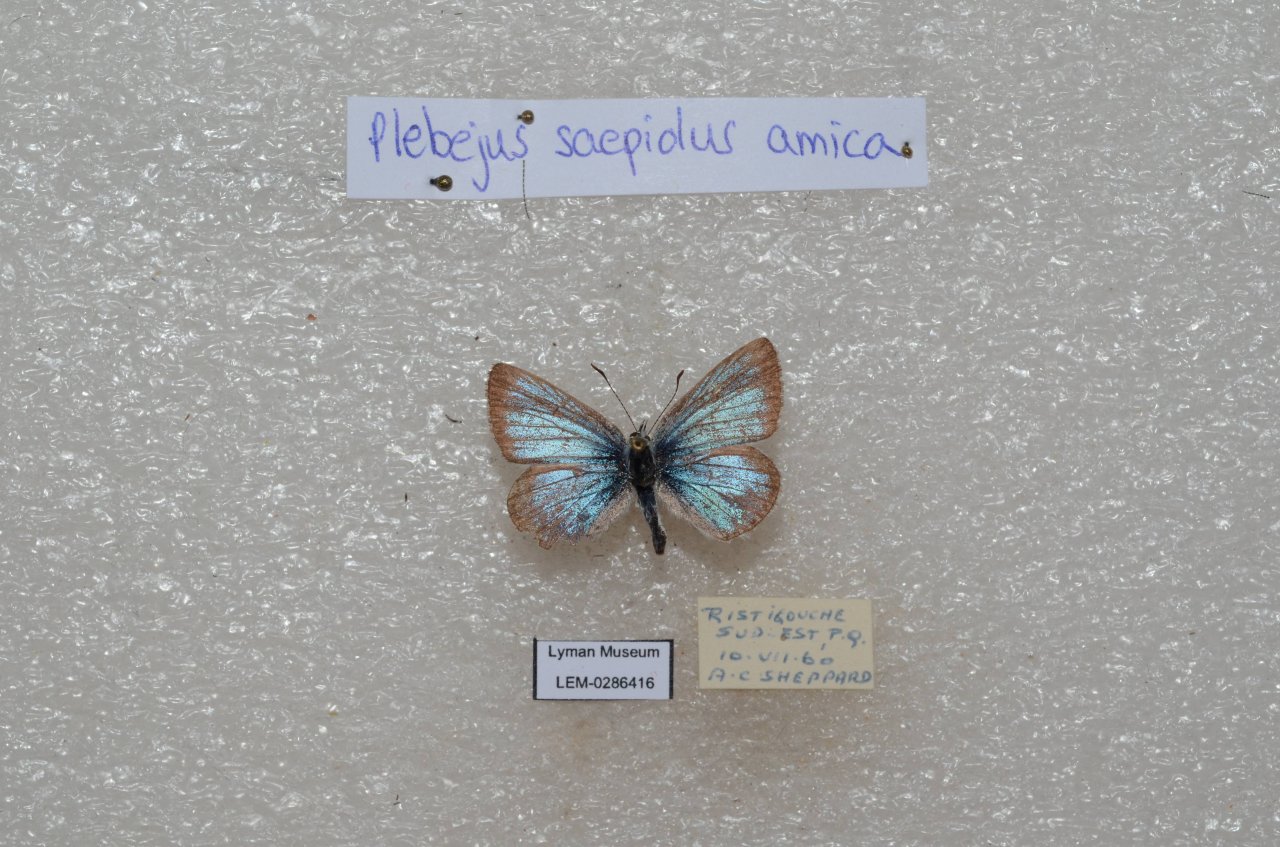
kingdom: Animalia
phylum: Arthropoda
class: Insecta
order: Lepidoptera
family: Lycaenidae
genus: Plebejus
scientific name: Plebejus saepiolus
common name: Greenish Blue
